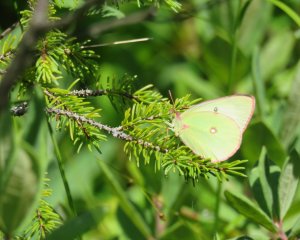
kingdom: Animalia
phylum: Arthropoda
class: Insecta
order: Lepidoptera
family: Pieridae
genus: Colias
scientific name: Colias interior
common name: Pink-edged Sulphur
